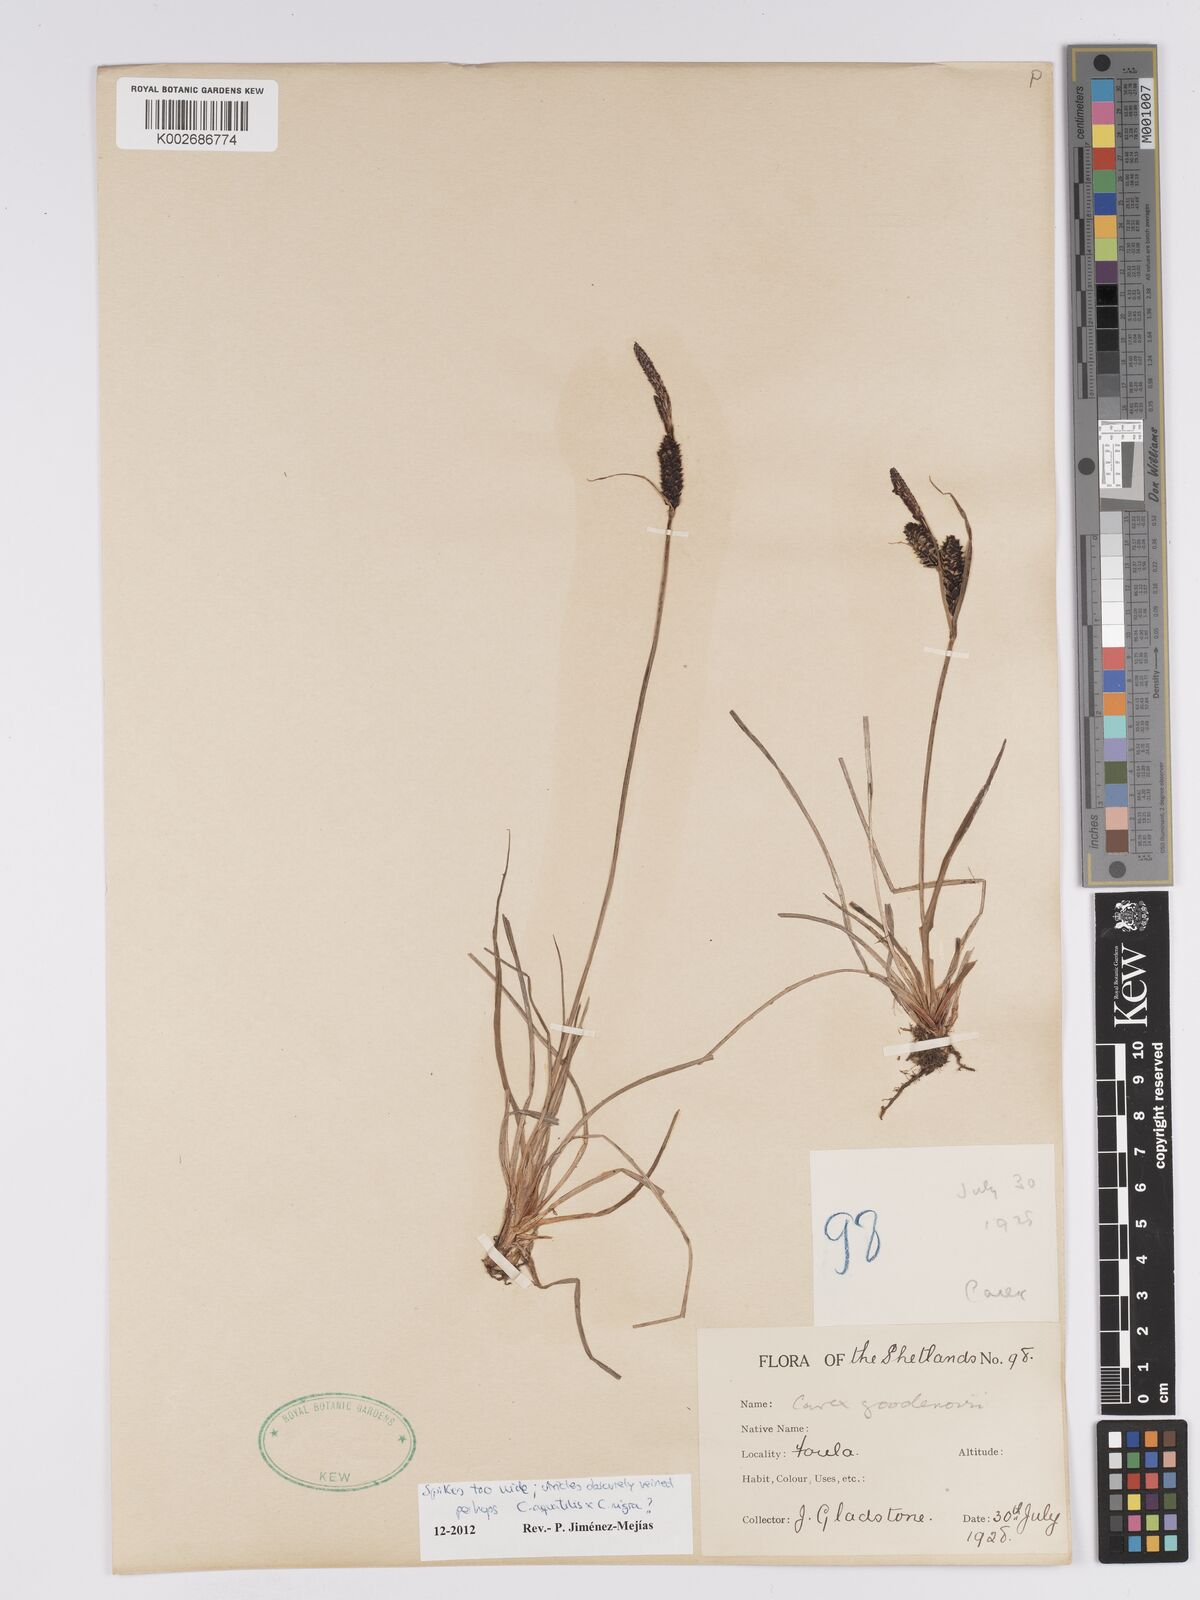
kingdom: Plantae
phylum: Tracheophyta
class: Liliopsida
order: Poales
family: Cyperaceae
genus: Carex
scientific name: Carex microcarpa
